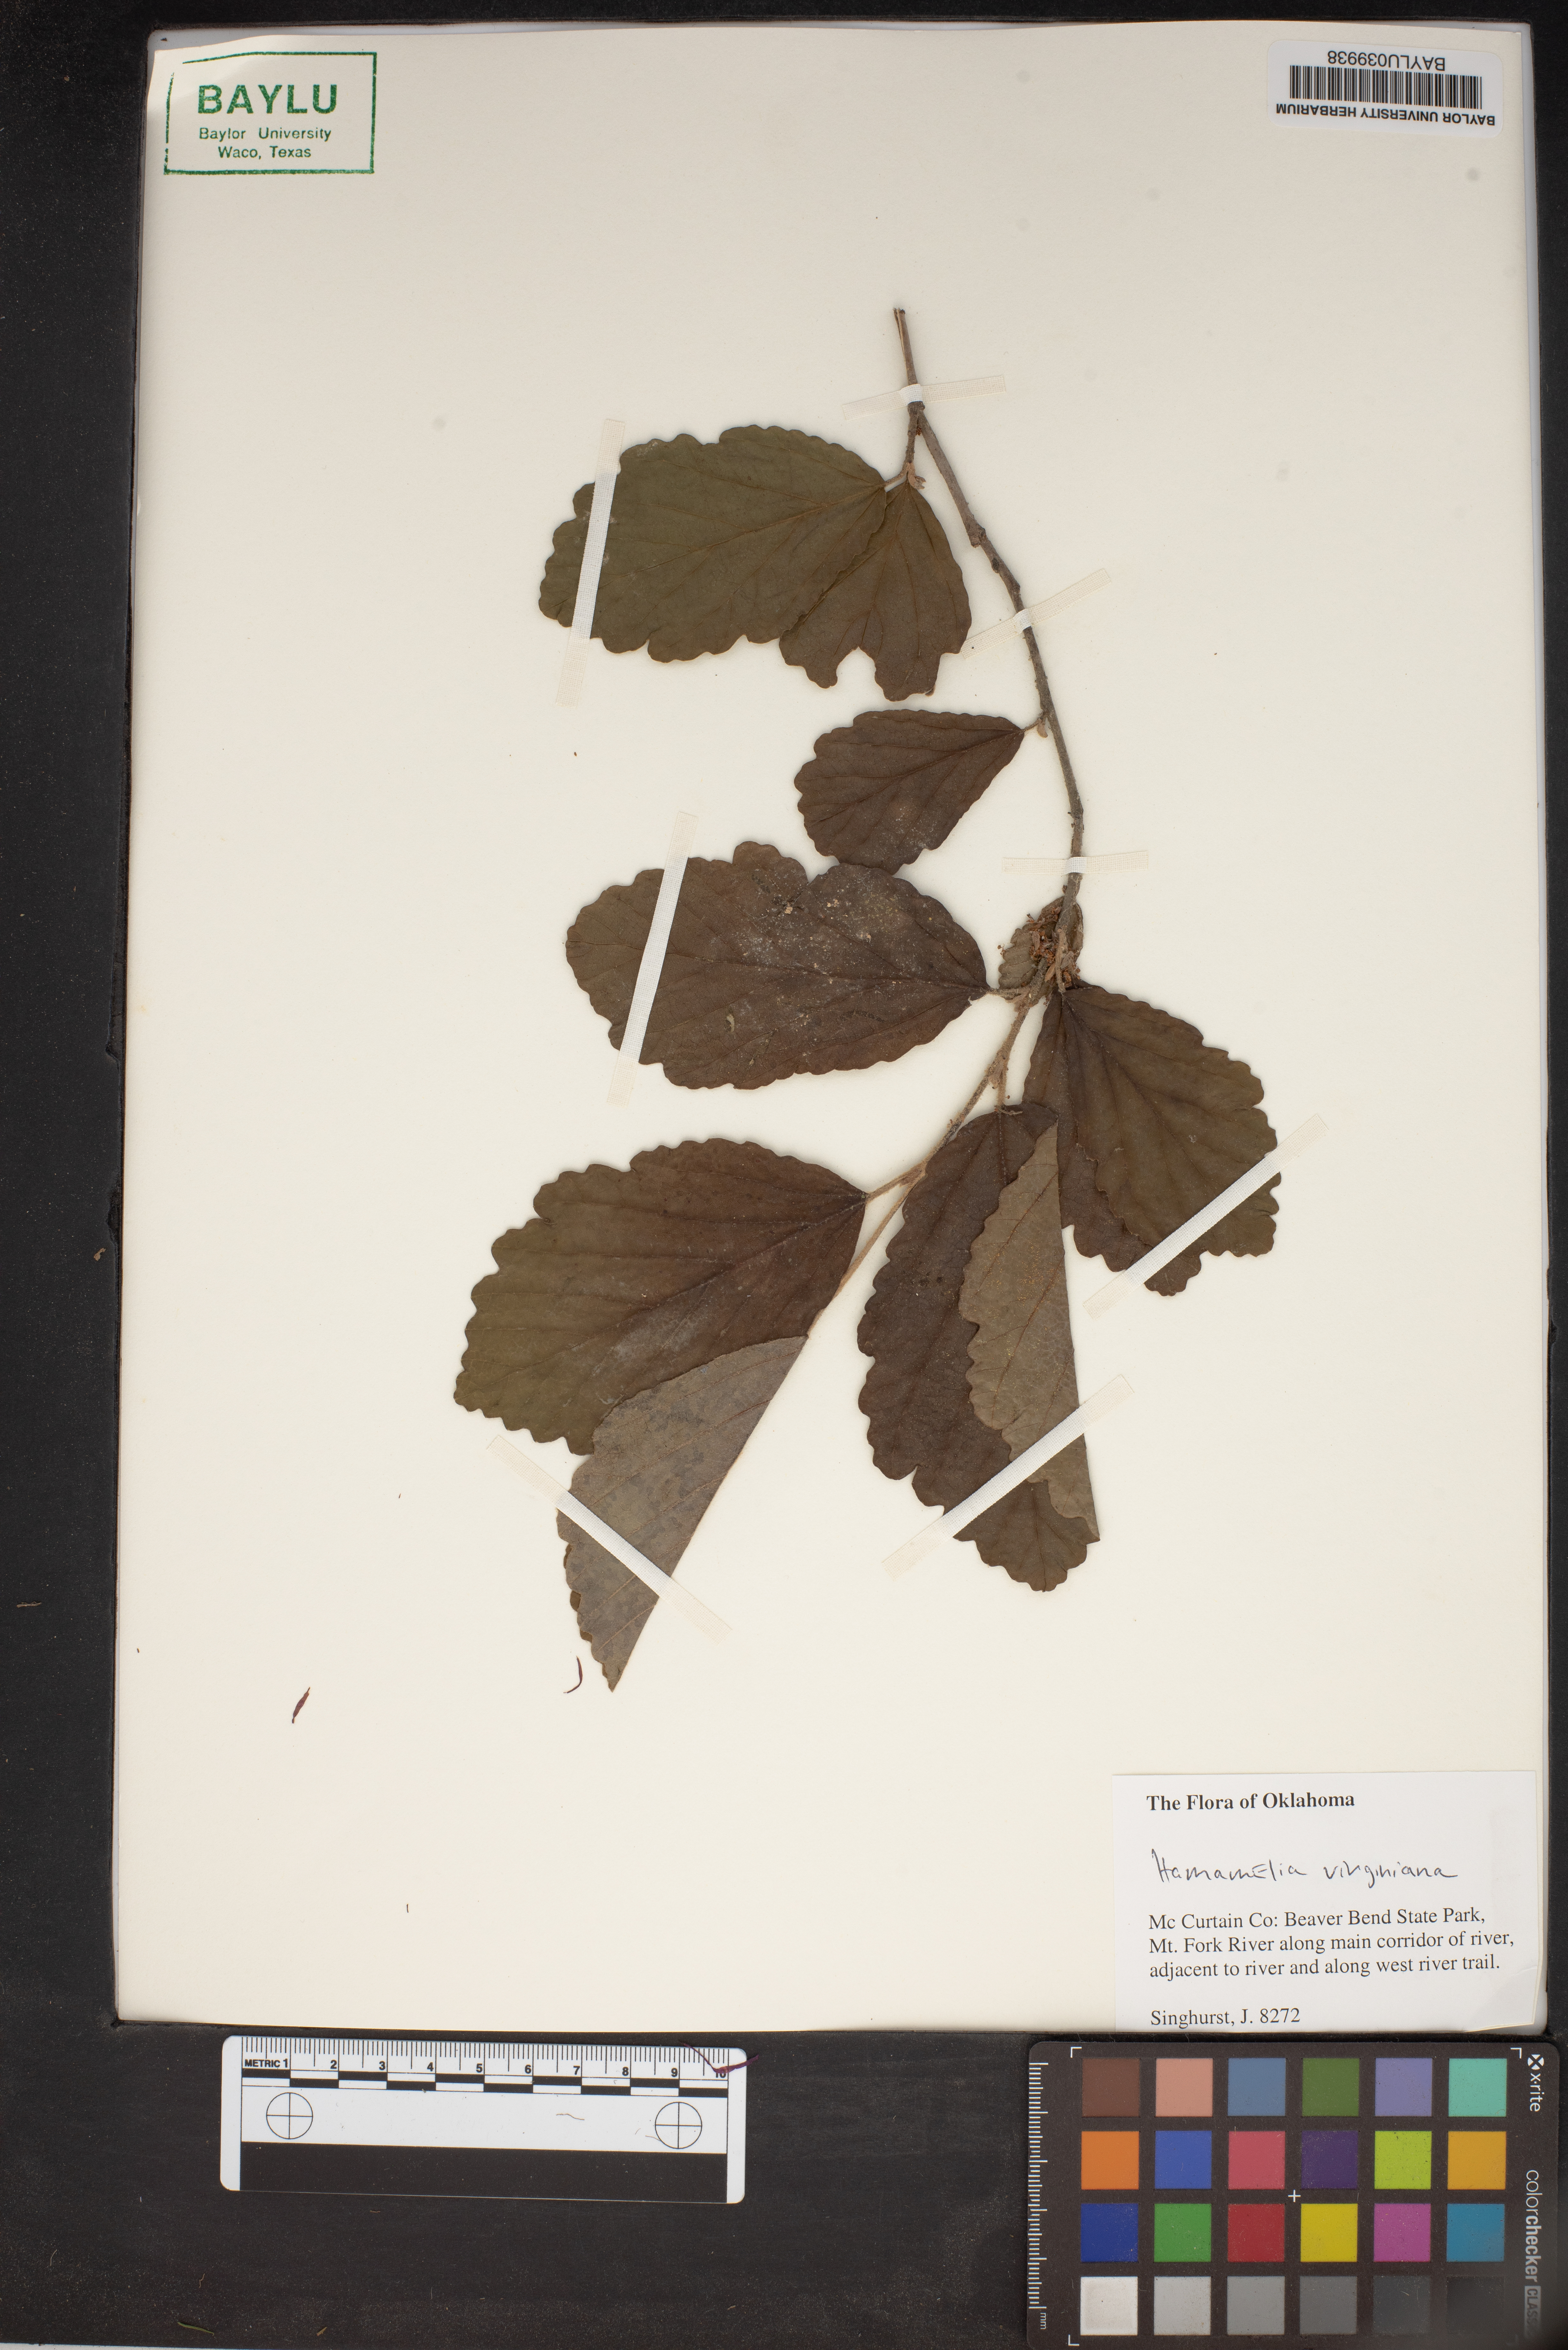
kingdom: Plantae
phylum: Tracheophyta
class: Magnoliopsida
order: Saxifragales
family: Hamamelidaceae
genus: Hamamelis
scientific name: Hamamelis virginiana
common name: Witch-hazel
